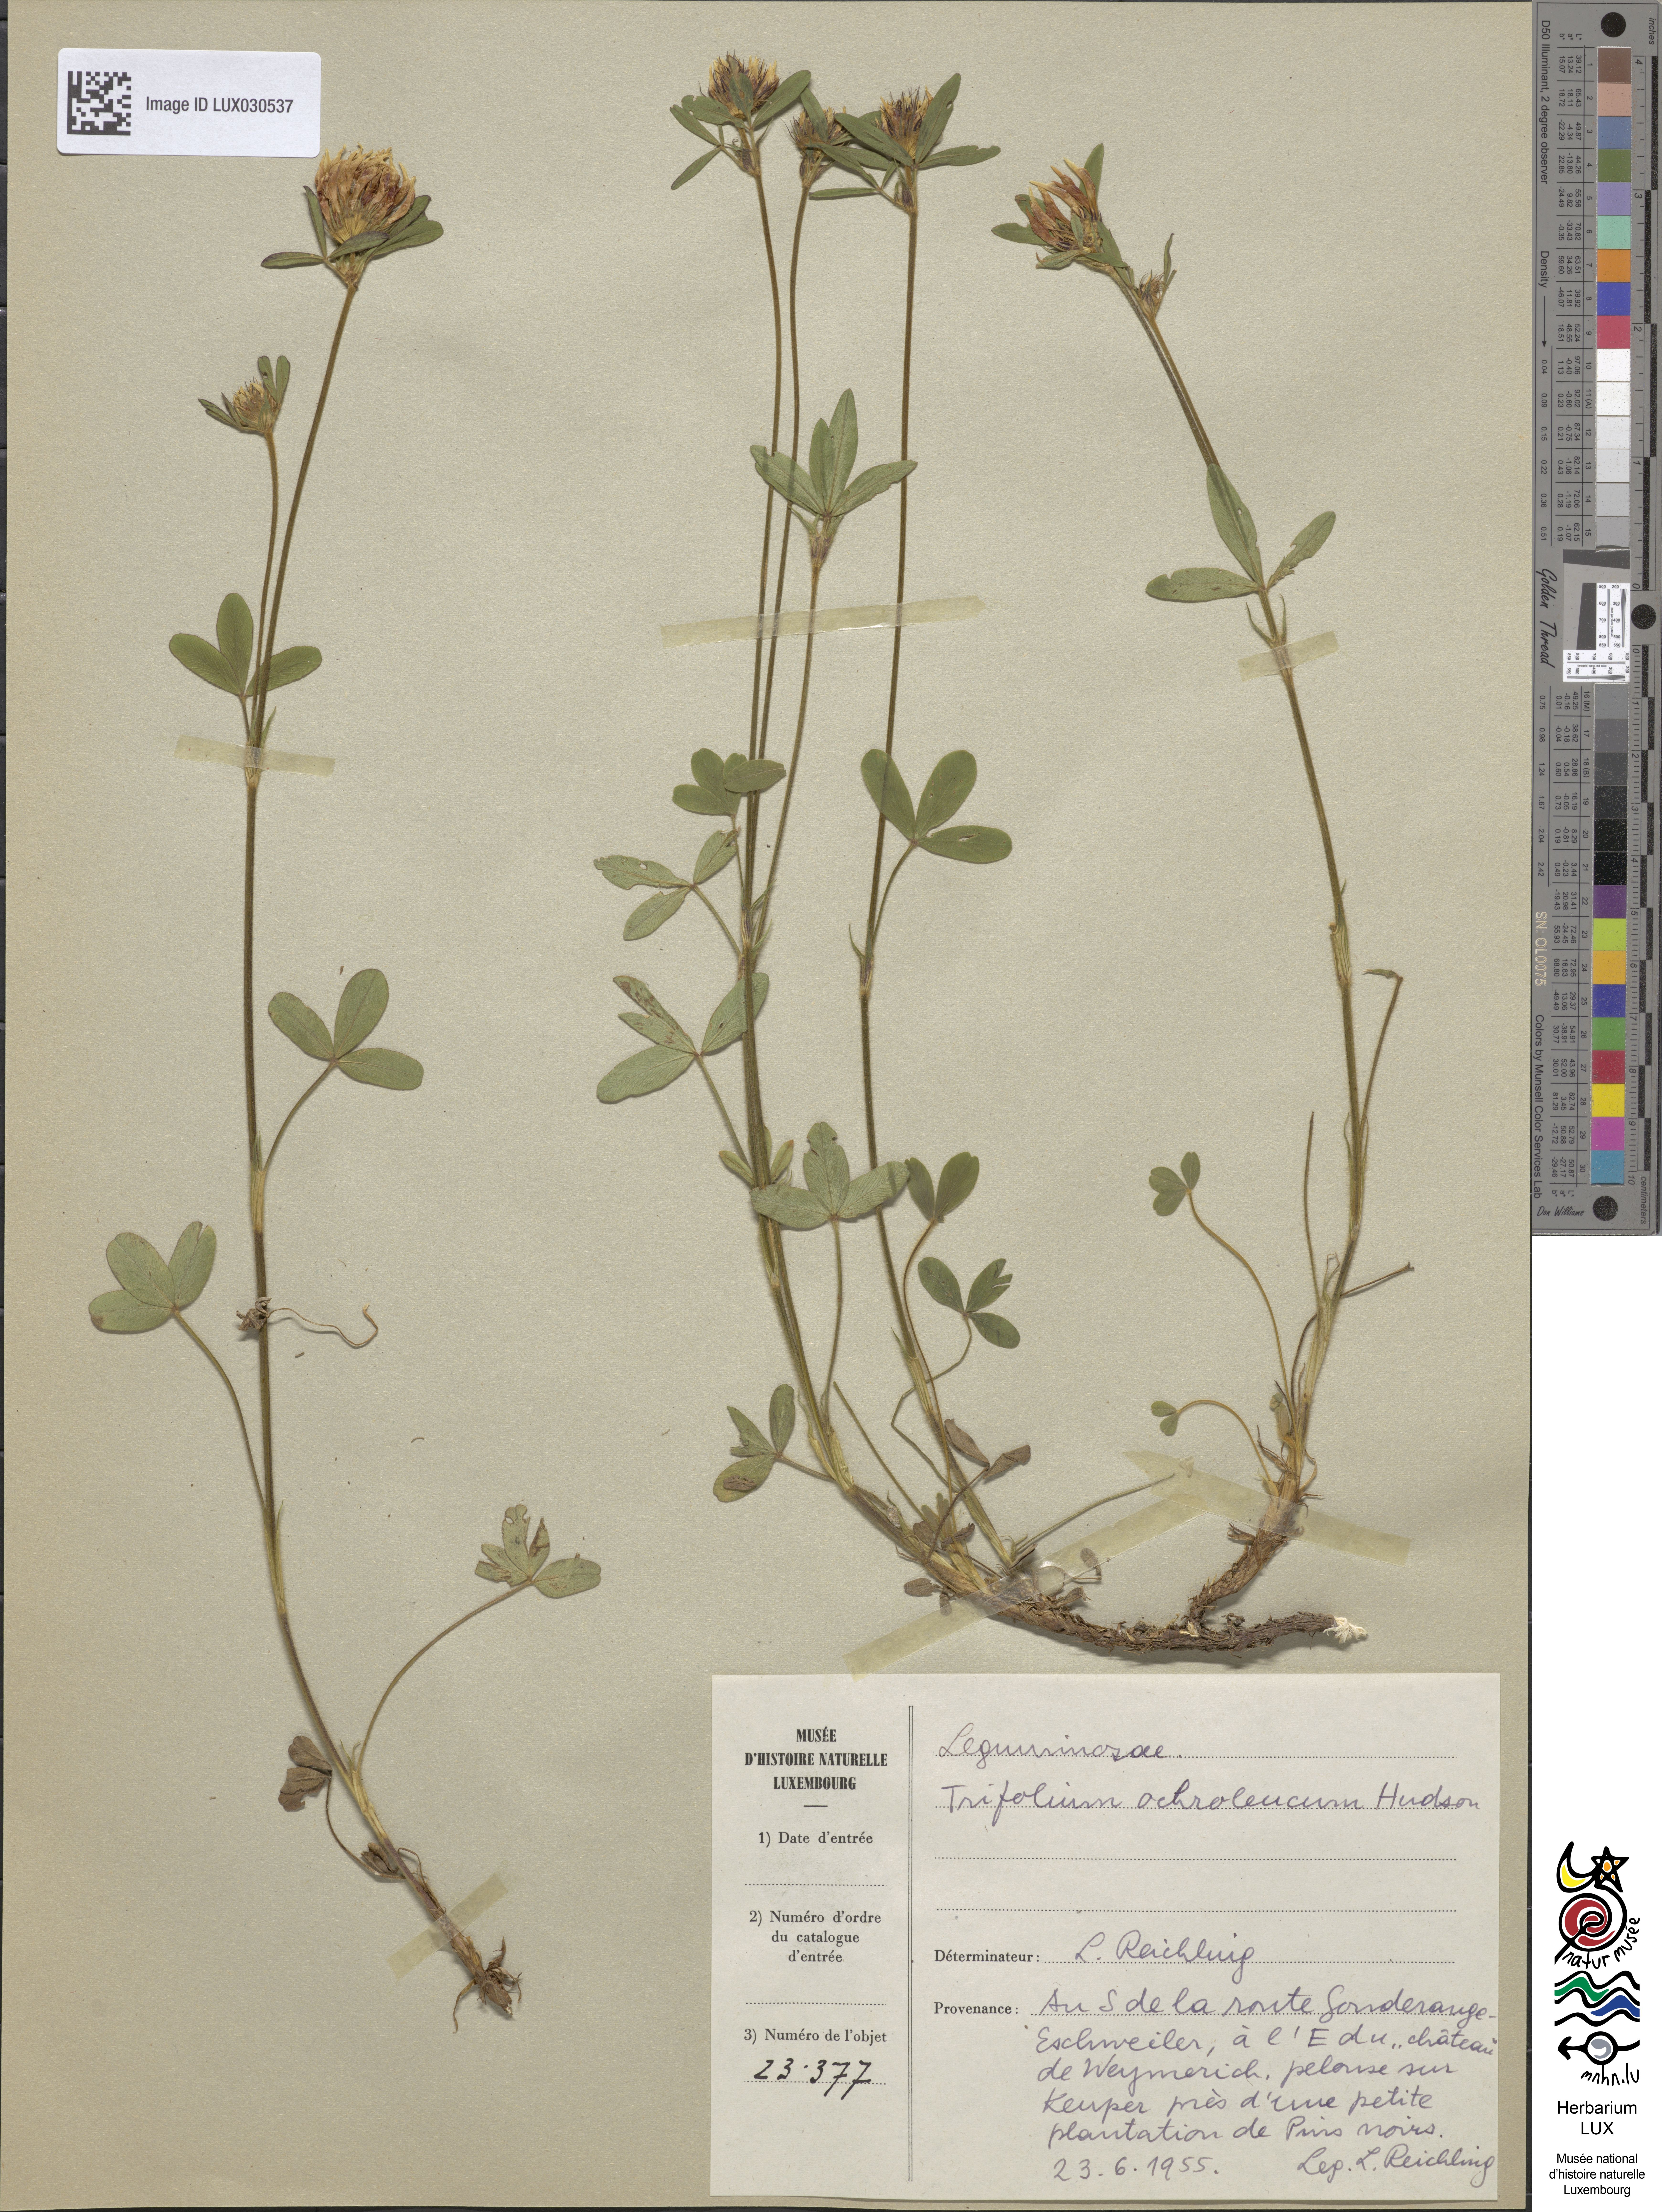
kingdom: Plantae
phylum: Tracheophyta
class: Magnoliopsida
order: Fabales
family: Fabaceae
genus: Trifolium
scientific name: Trifolium ochroleucon
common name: Sulphur clover
